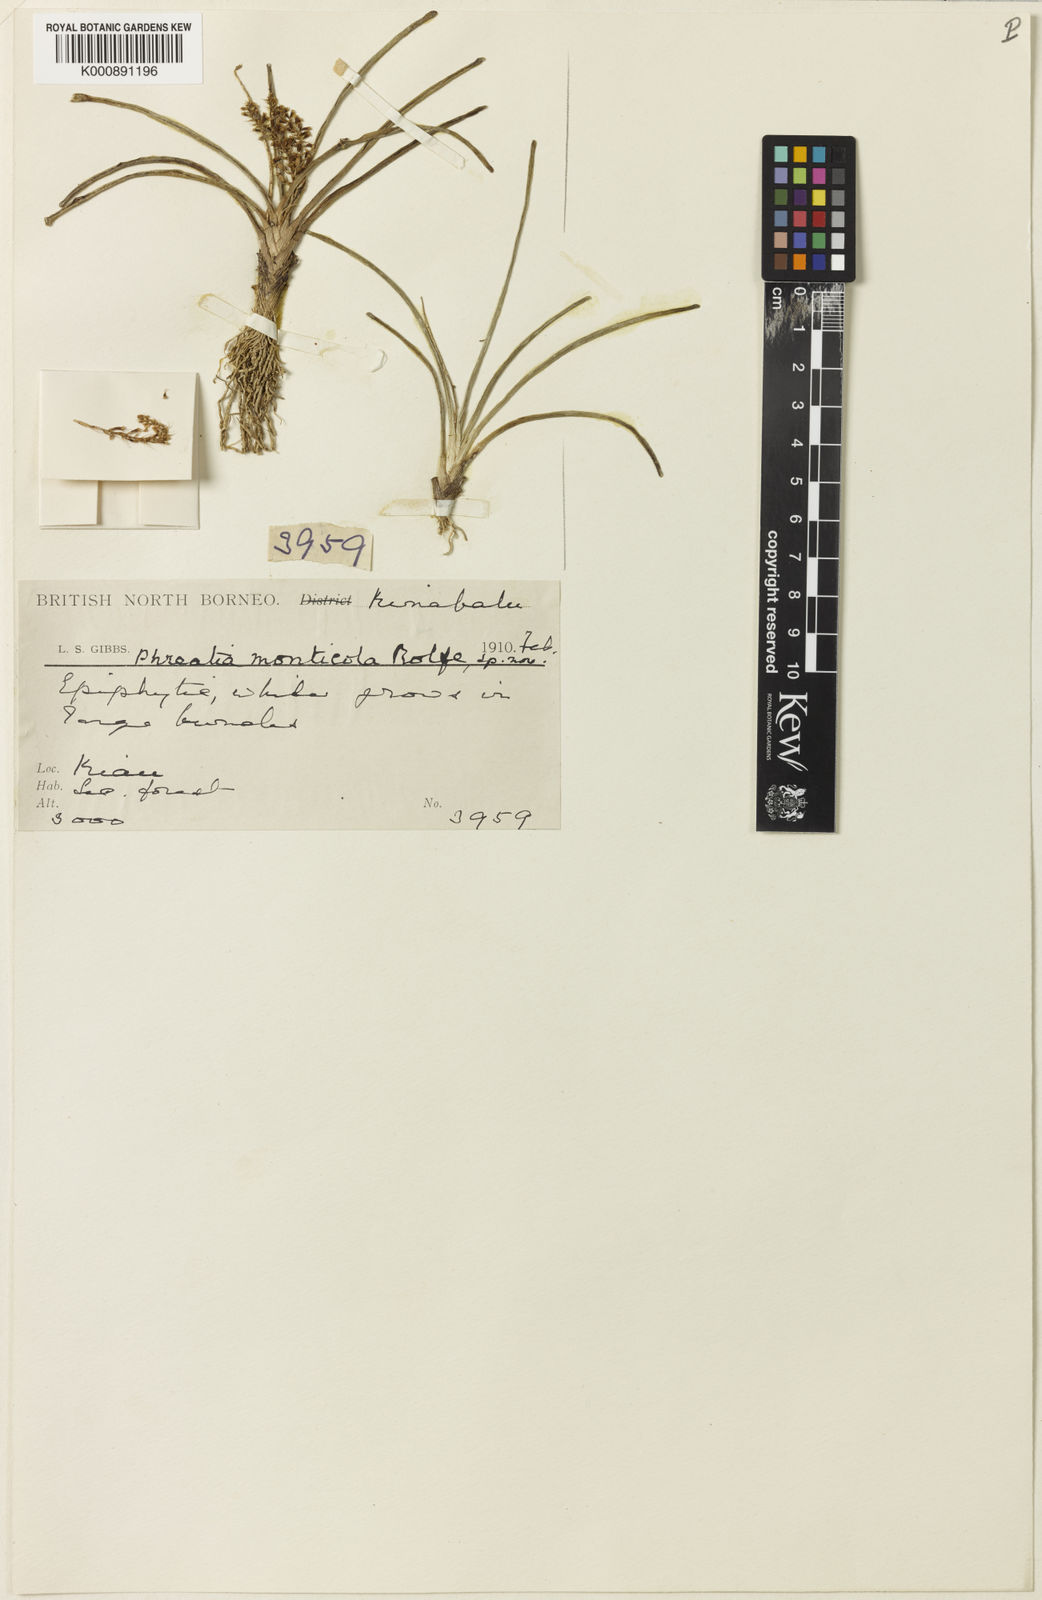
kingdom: Plantae
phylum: Tracheophyta
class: Liliopsida
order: Asparagales
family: Orchidaceae
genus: Phreatia
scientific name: Phreatia epimonticola
